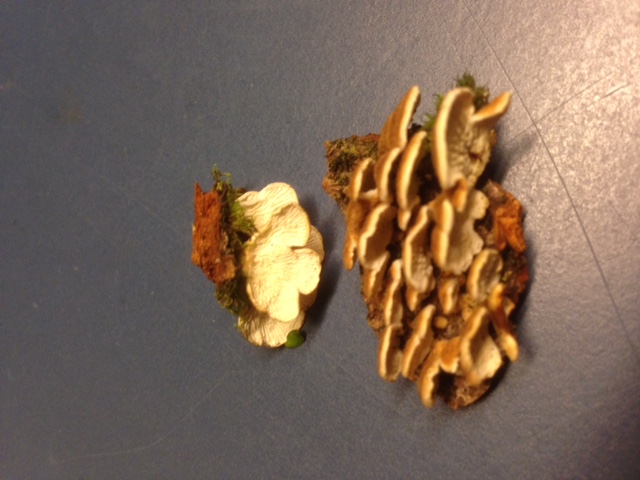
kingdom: Fungi
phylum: Basidiomycota
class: Agaricomycetes
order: Amylocorticiales
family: Amylocorticiaceae
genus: Plicaturopsis
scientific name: Plicaturopsis crispa
